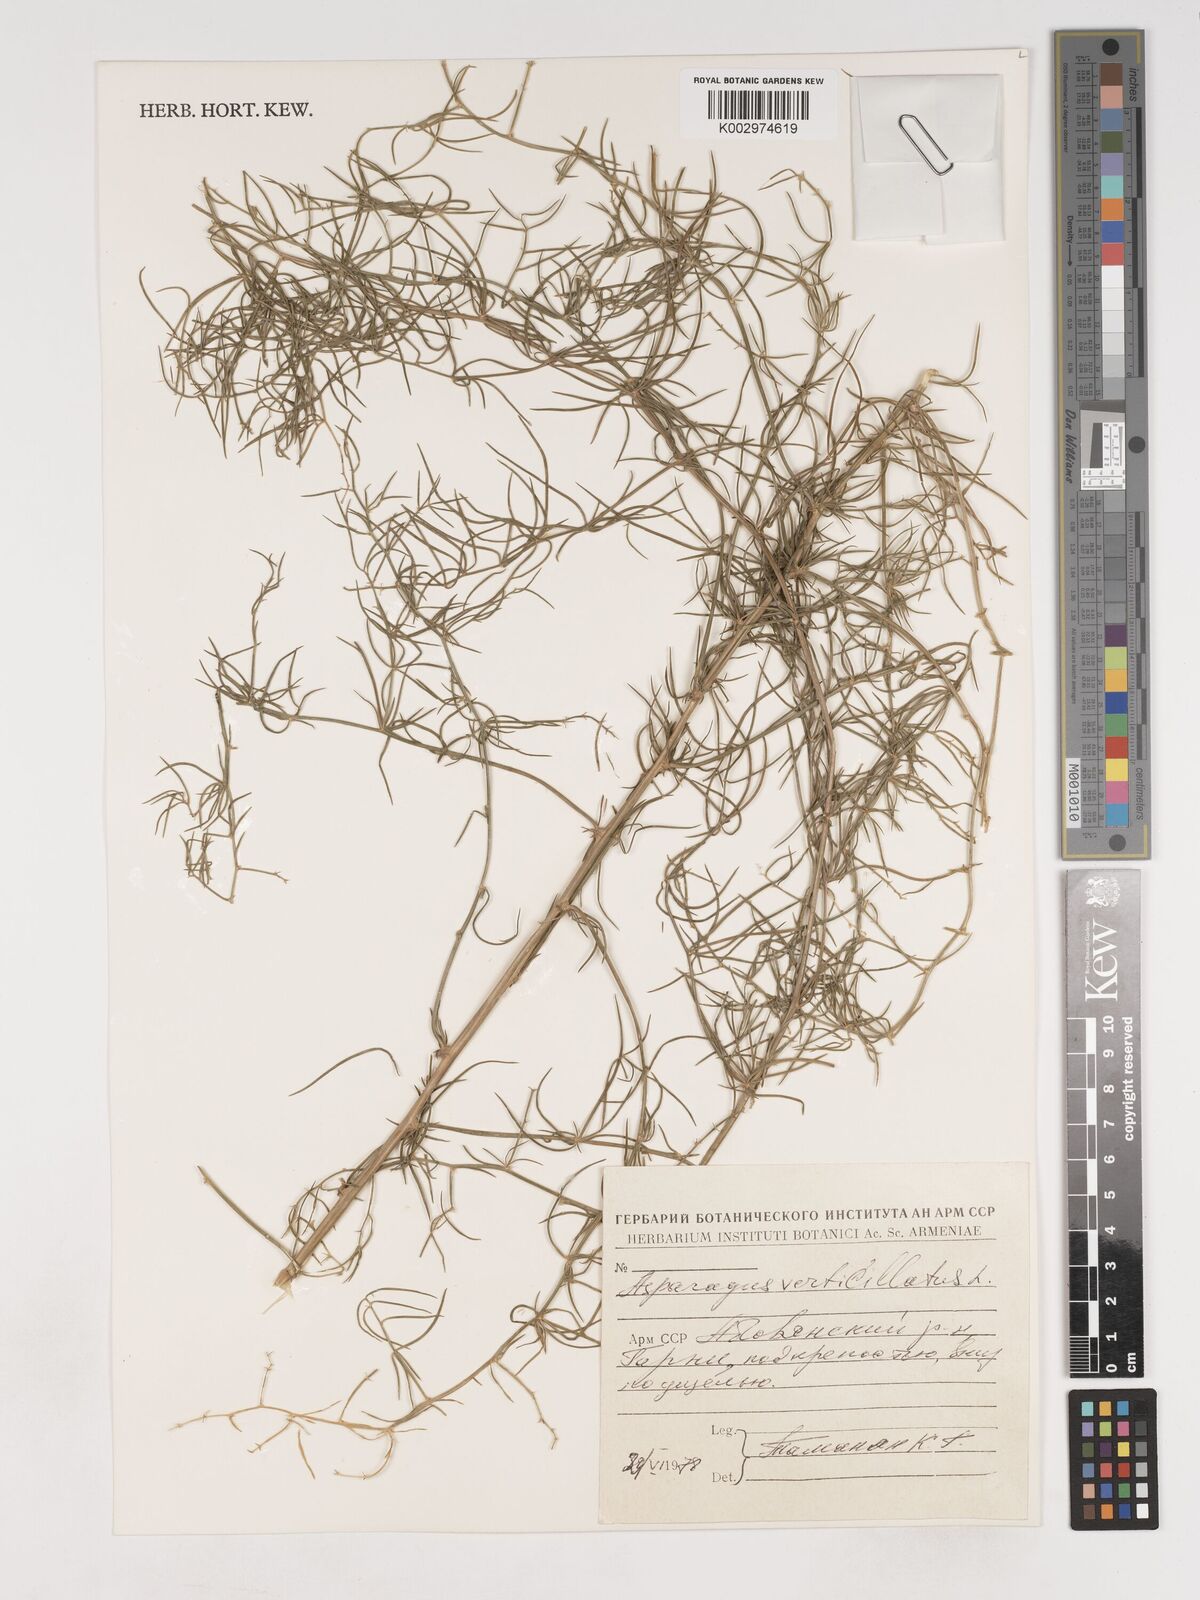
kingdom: Plantae
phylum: Tracheophyta
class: Liliopsida
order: Asparagales
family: Asparagaceae
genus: Asparagus
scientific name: Asparagus verticillatus
